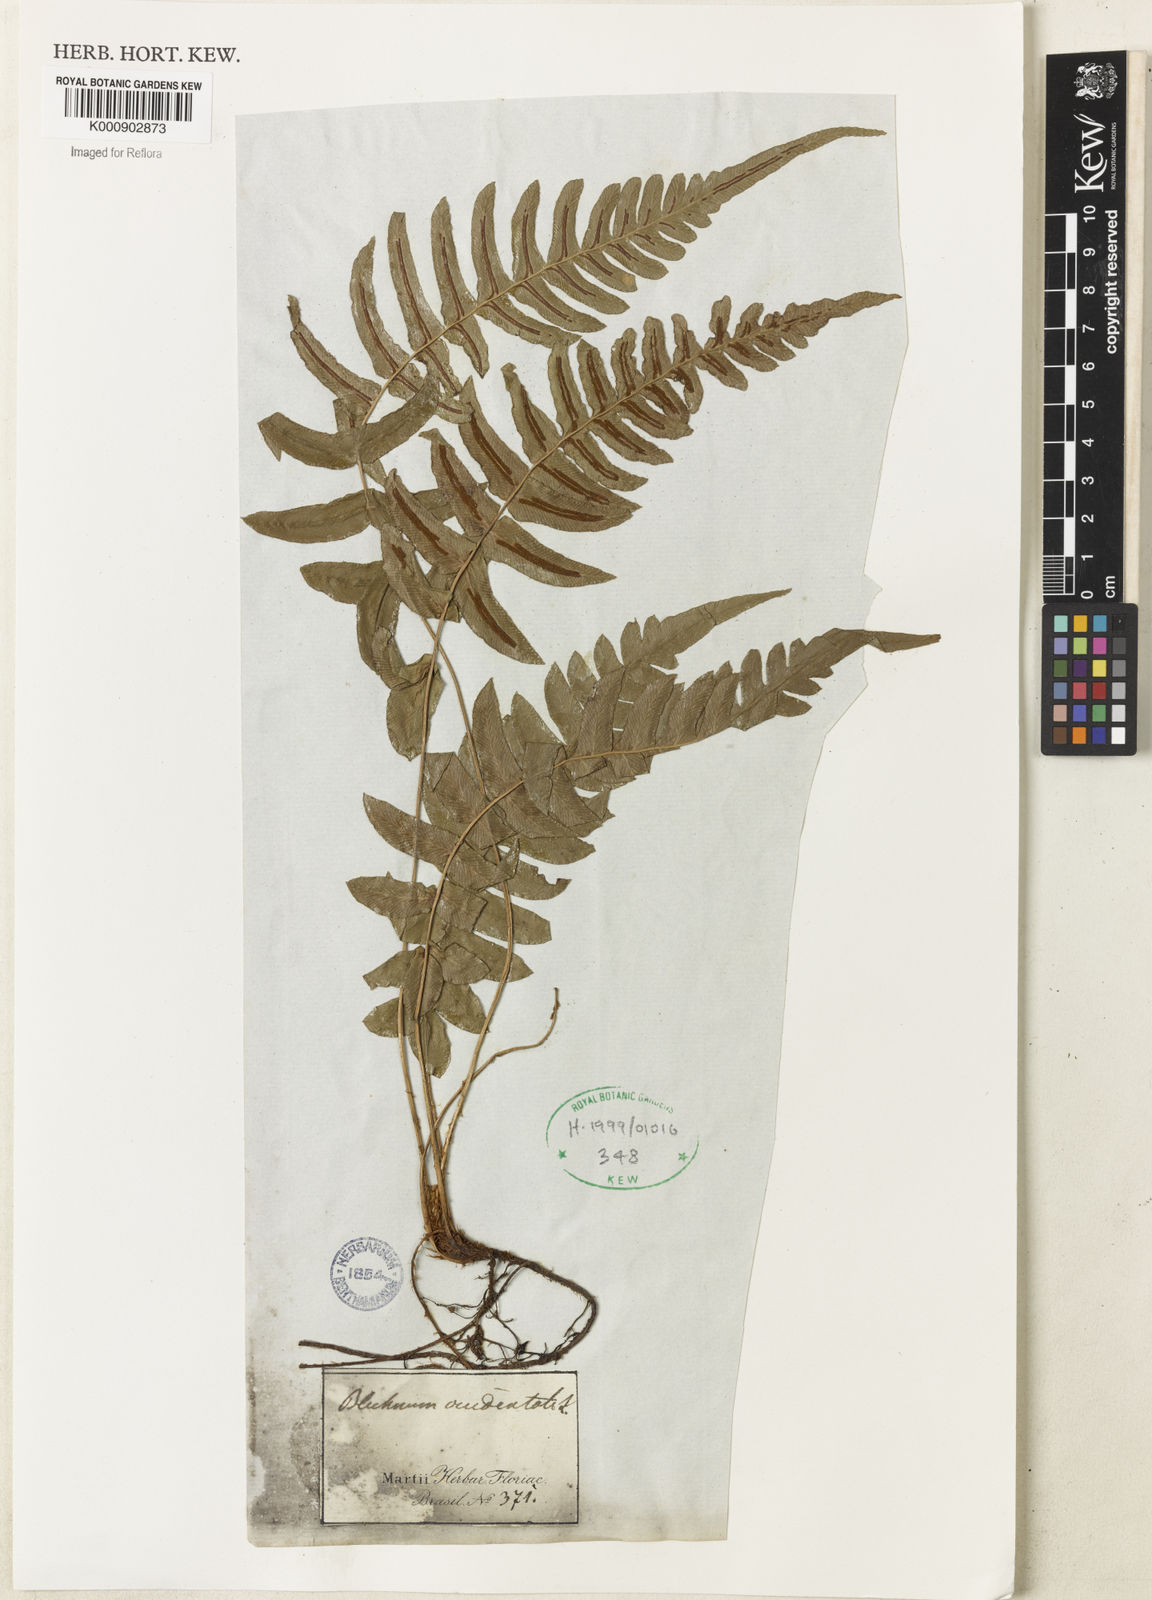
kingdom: Plantae
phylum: Tracheophyta
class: Polypodiopsida
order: Polypodiales
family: Blechnaceae
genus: Blechnum
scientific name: Blechnum occidentale
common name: Hammock fern
